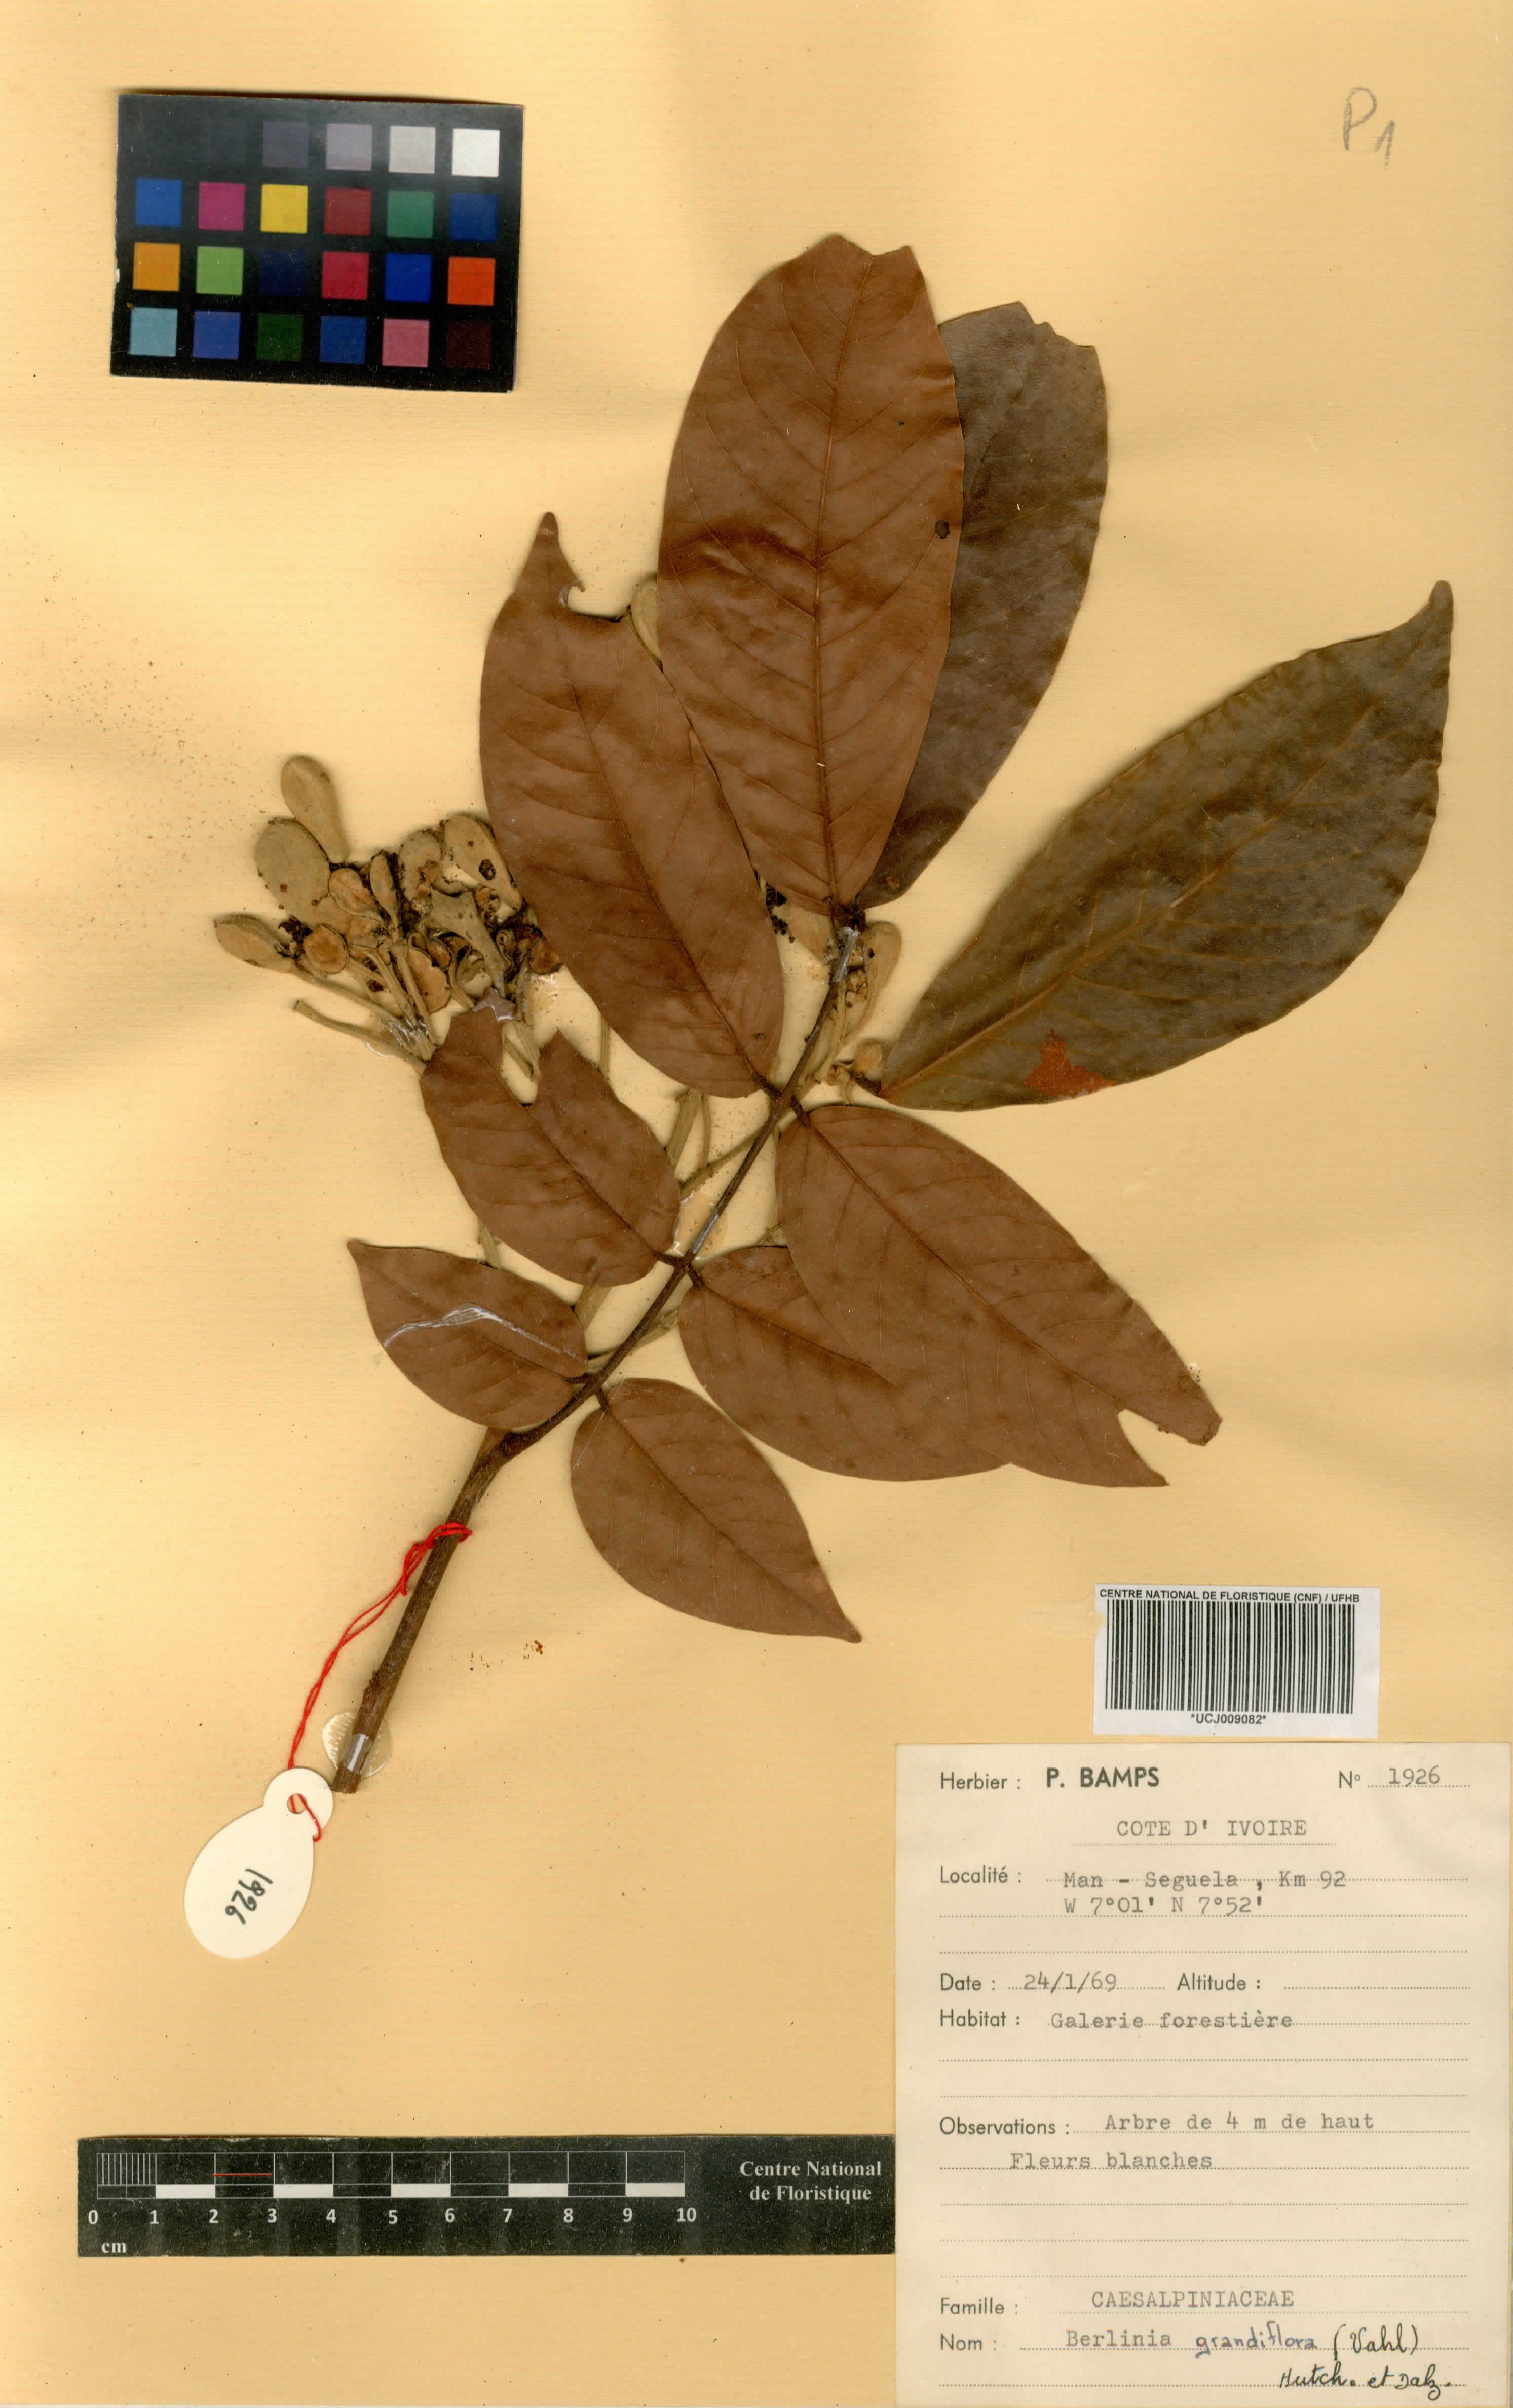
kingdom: Plantae
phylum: Tracheophyta
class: Magnoliopsida
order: Fabales
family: Fabaceae
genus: Berlinia
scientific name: Berlinia grandiflora
